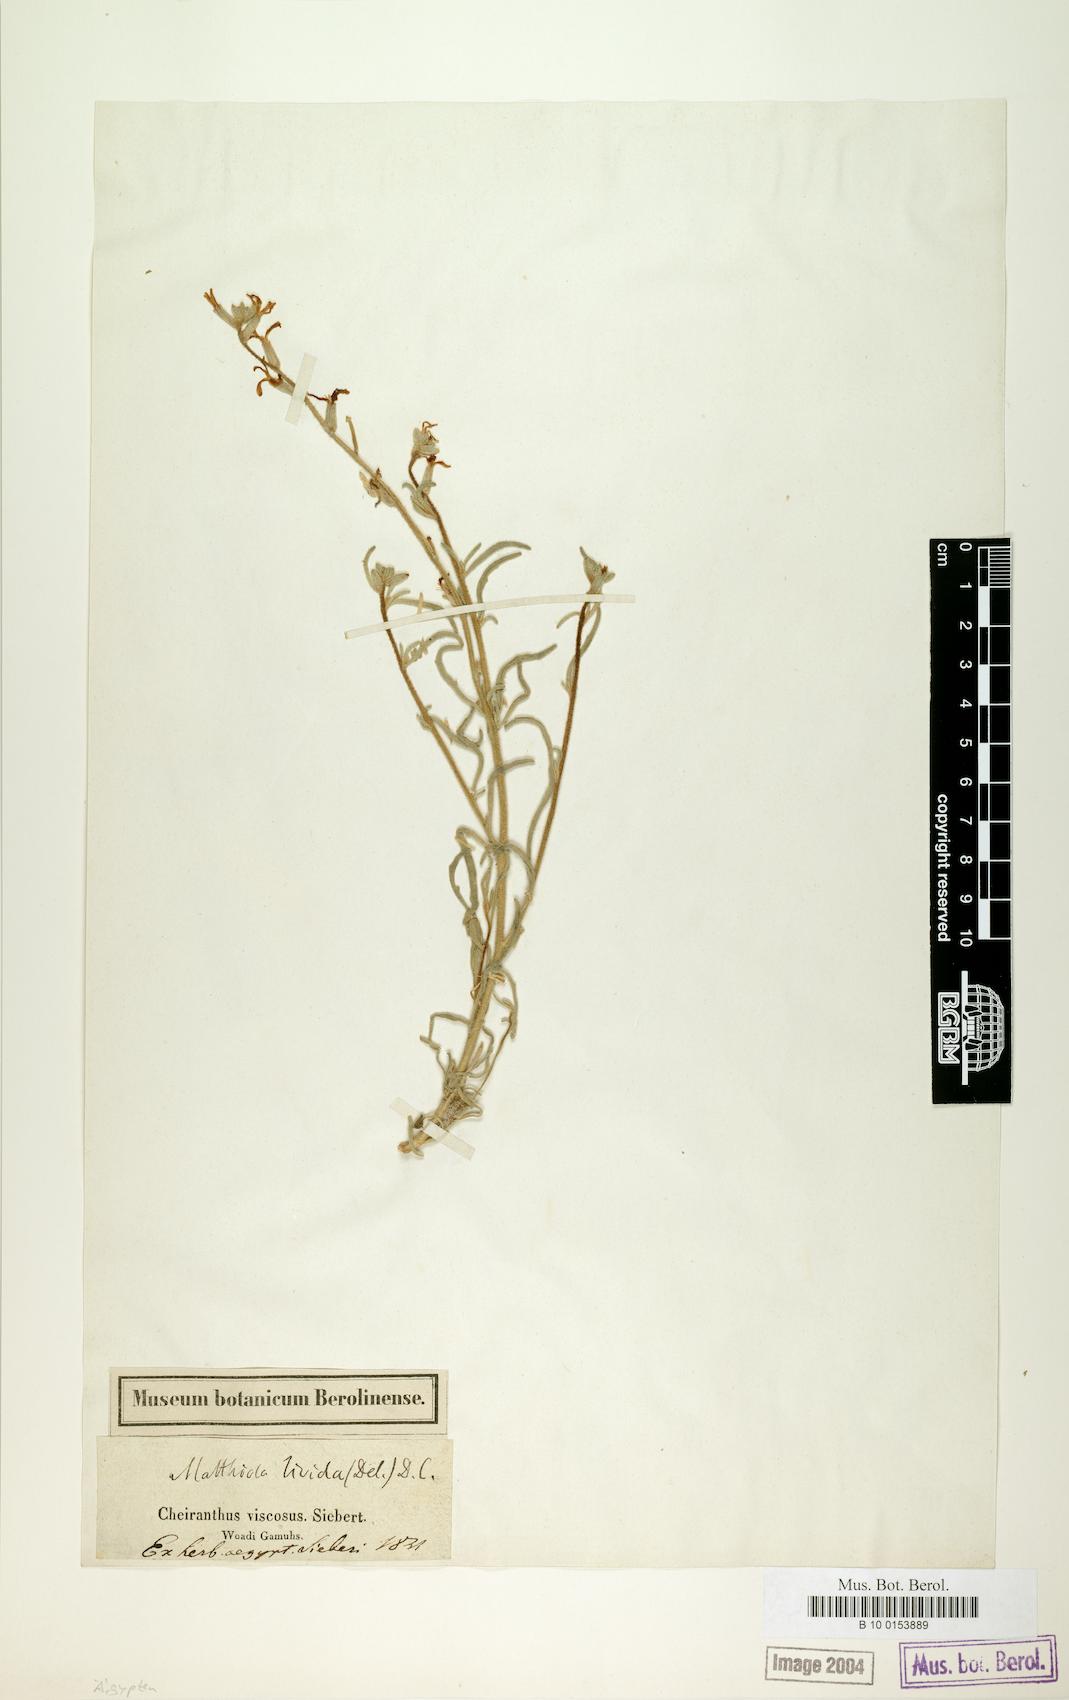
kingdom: Plantae
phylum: Tracheophyta
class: Magnoliopsida
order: Brassicales
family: Brassicaceae
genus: Matthiola
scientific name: Matthiola longipetala
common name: Night-scented stock
